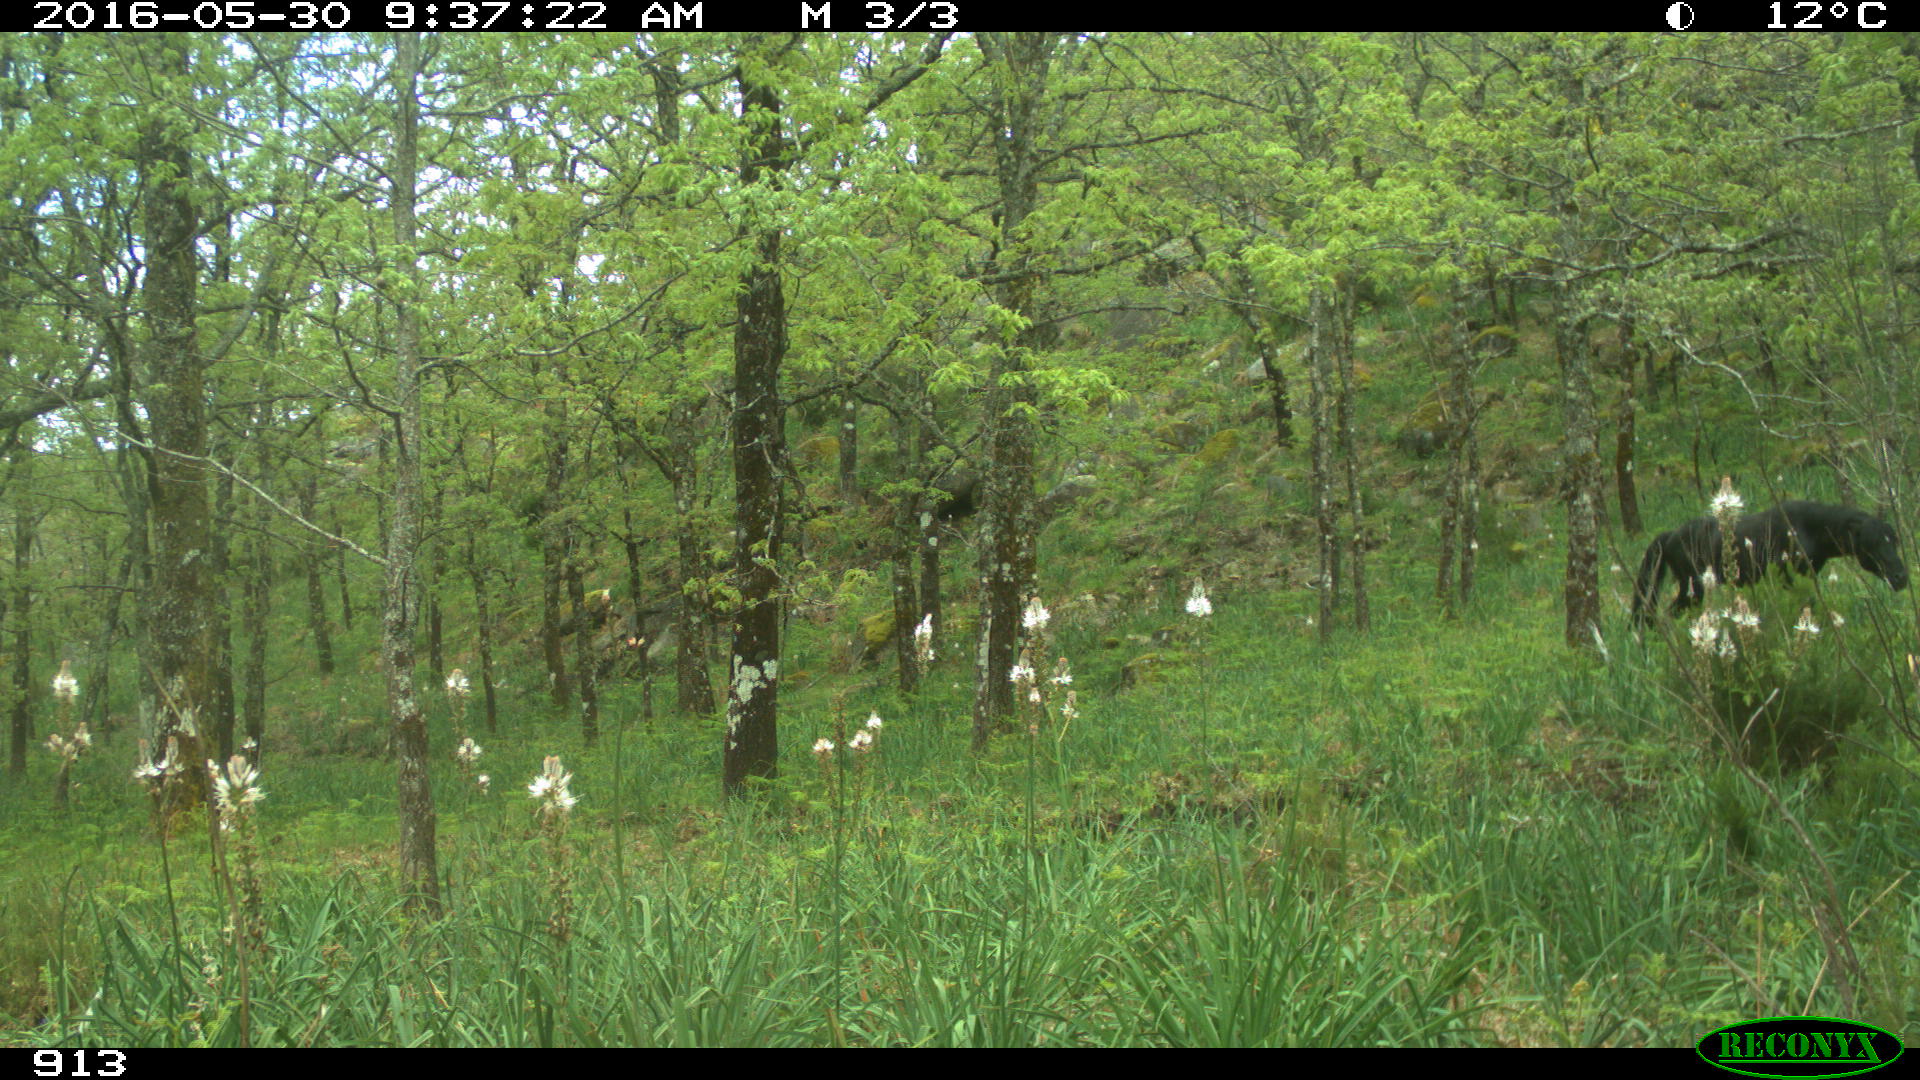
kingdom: Animalia
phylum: Chordata
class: Mammalia
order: Perissodactyla
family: Equidae
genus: Equus
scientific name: Equus caballus
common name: Horse
